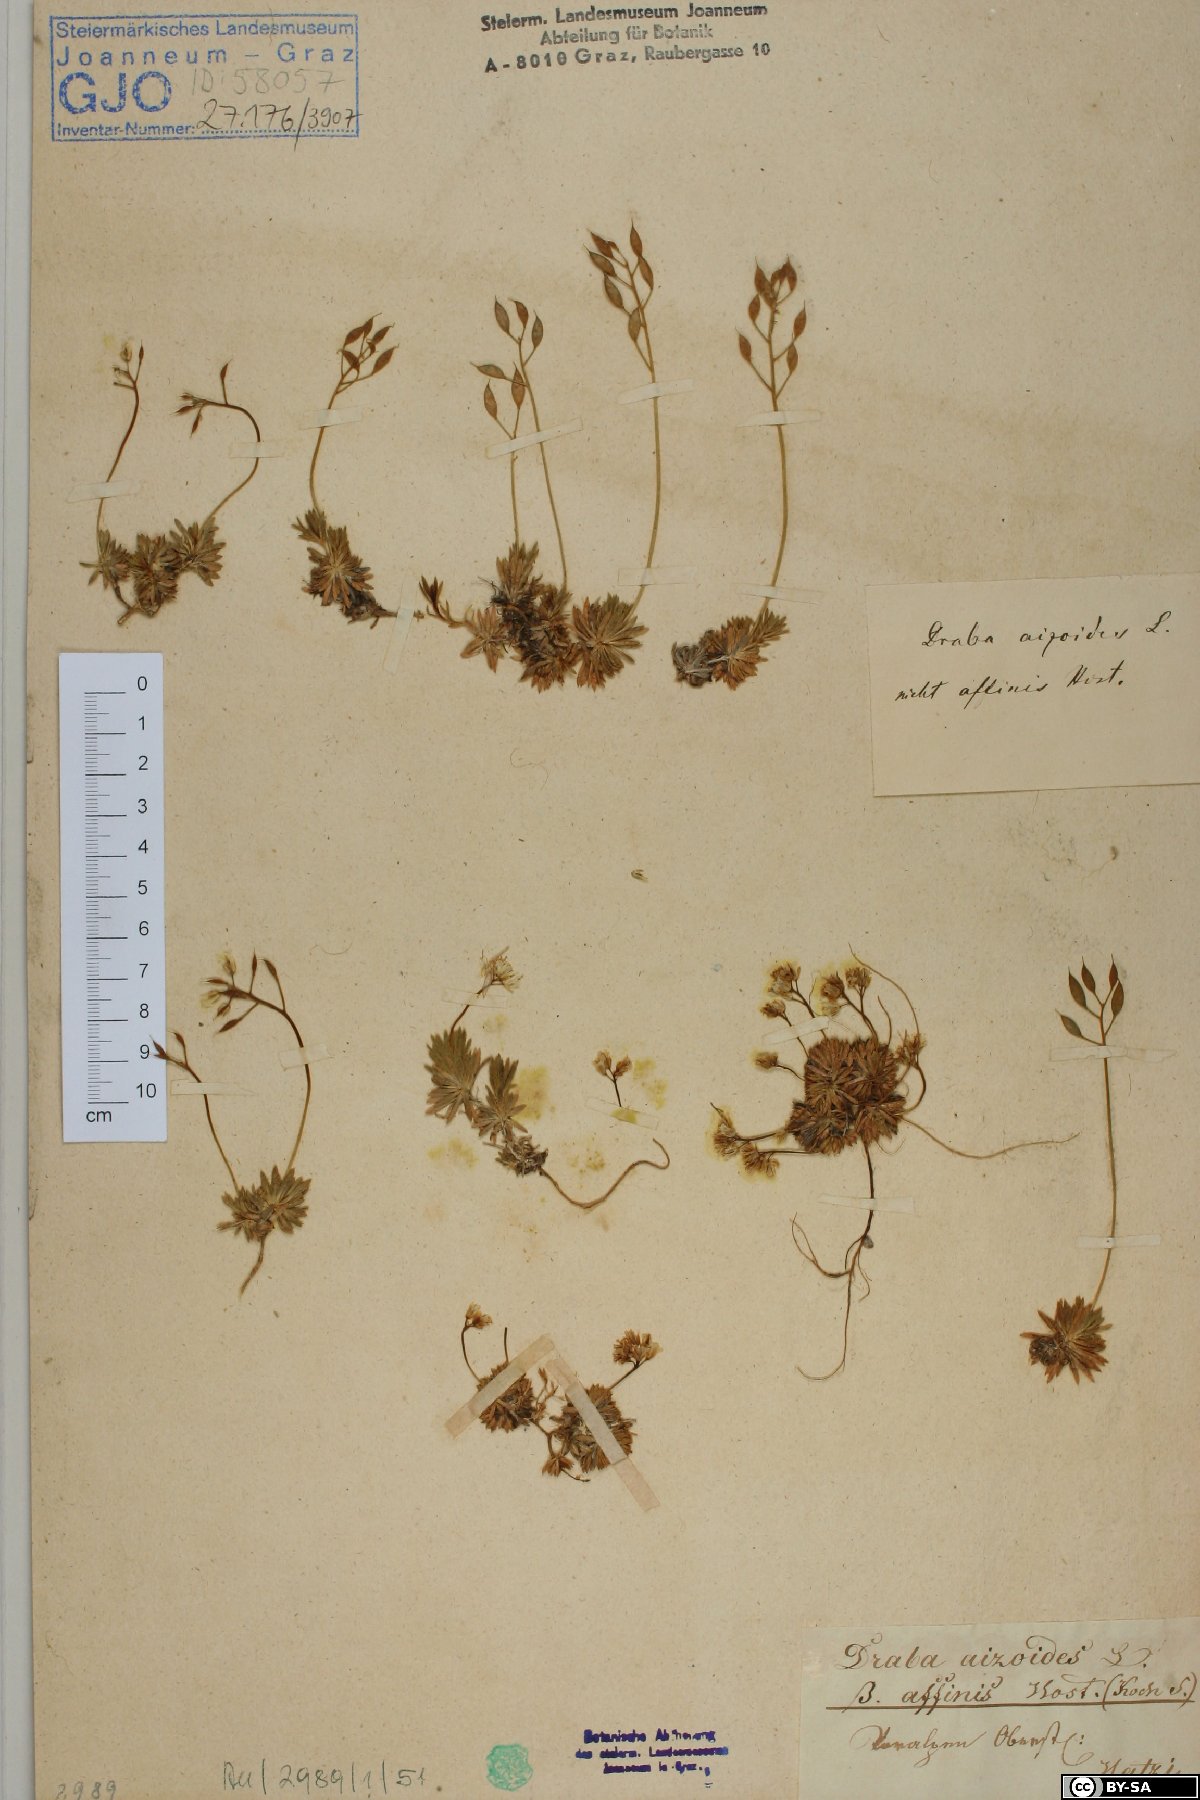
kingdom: Plantae
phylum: Tracheophyta
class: Magnoliopsida
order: Brassicales
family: Brassicaceae
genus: Draba
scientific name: Draba aizoides
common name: Yellow whitlowgrass
